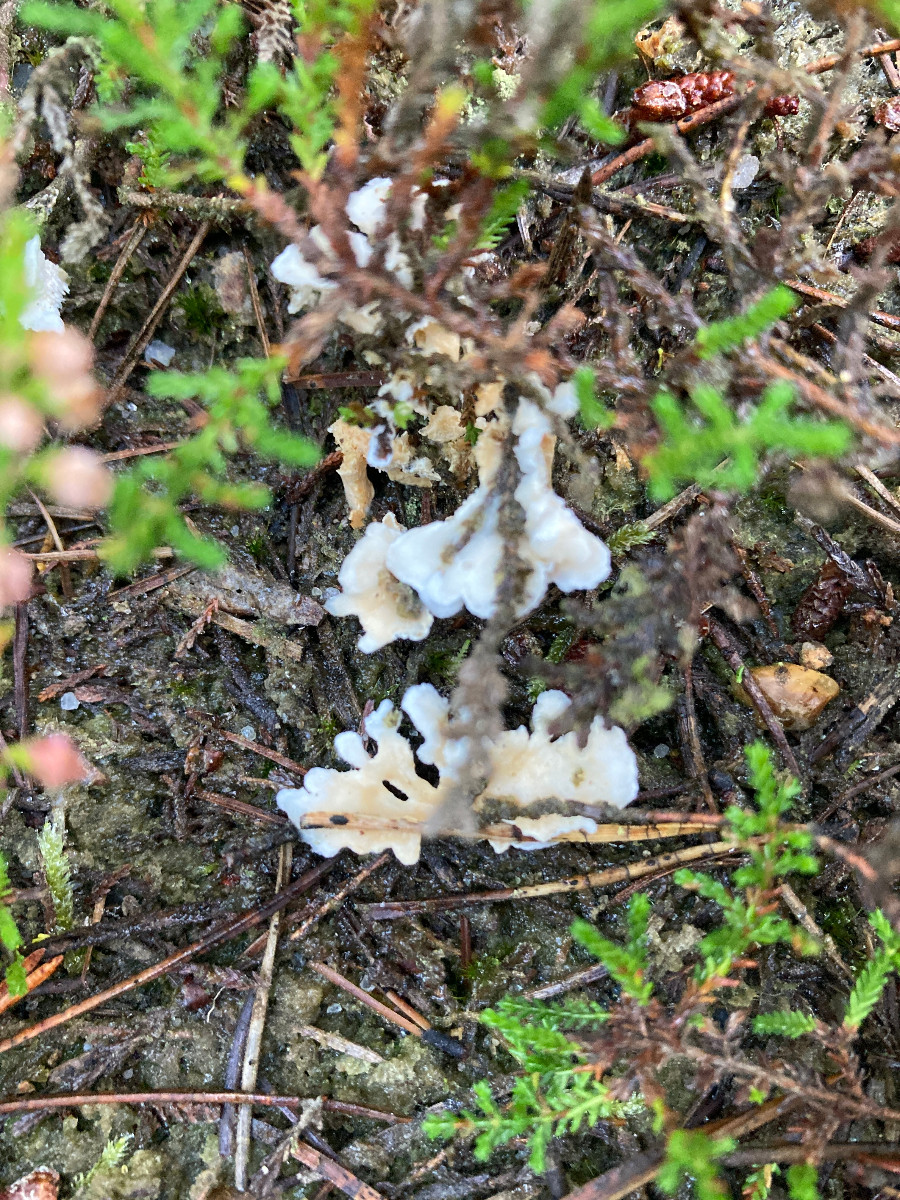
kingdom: Fungi
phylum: Basidiomycota
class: Agaricomycetes
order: Cantharellales
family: Hydnaceae
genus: Sistotrema
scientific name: Sistotrema confluens
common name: stilket kroneskorpe
